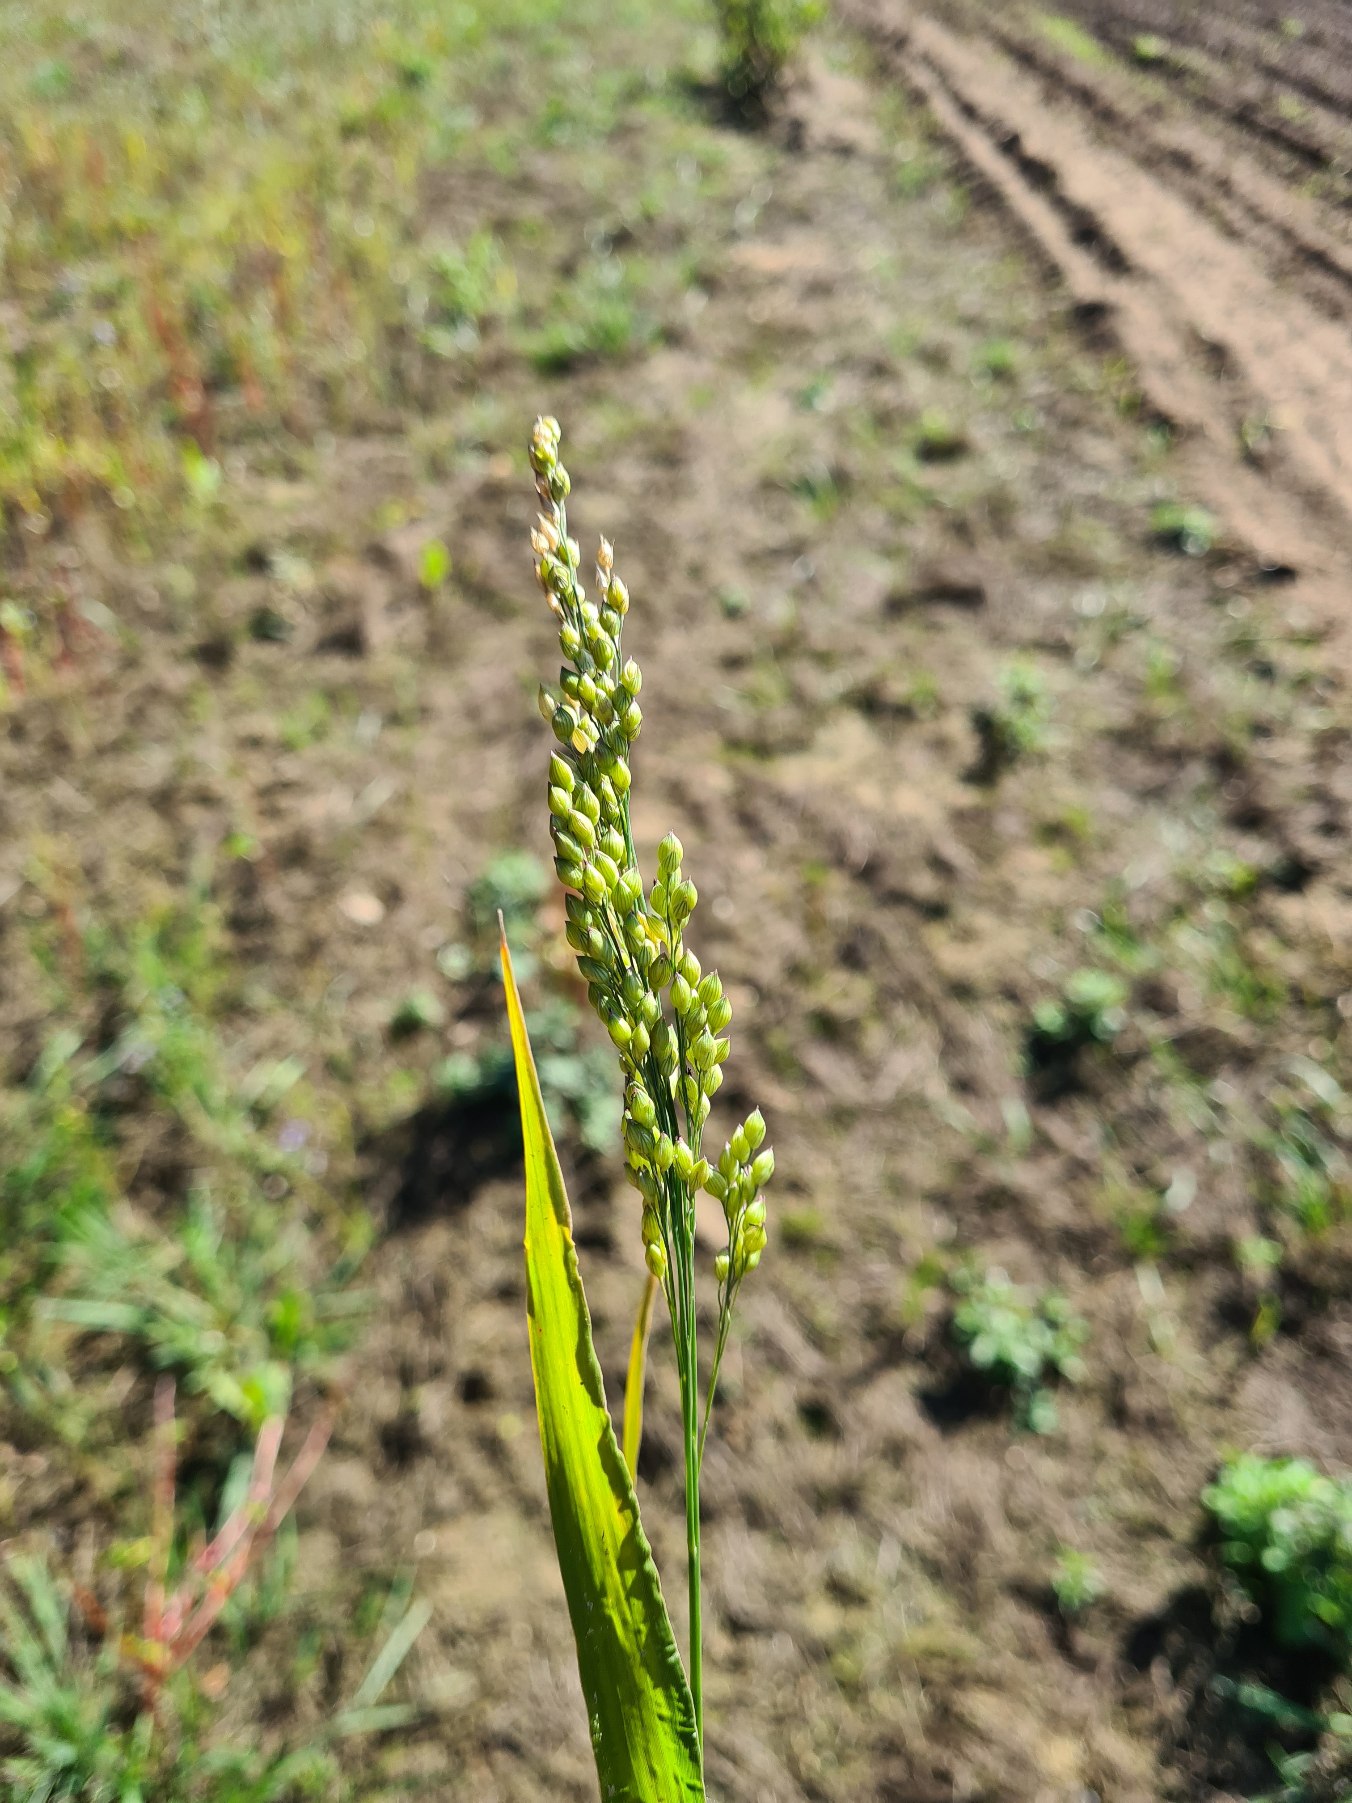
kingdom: Plantae
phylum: Tracheophyta
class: Liliopsida
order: Poales
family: Poaceae
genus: Panicum
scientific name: Panicum miliaceum
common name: Almindelig hirse
